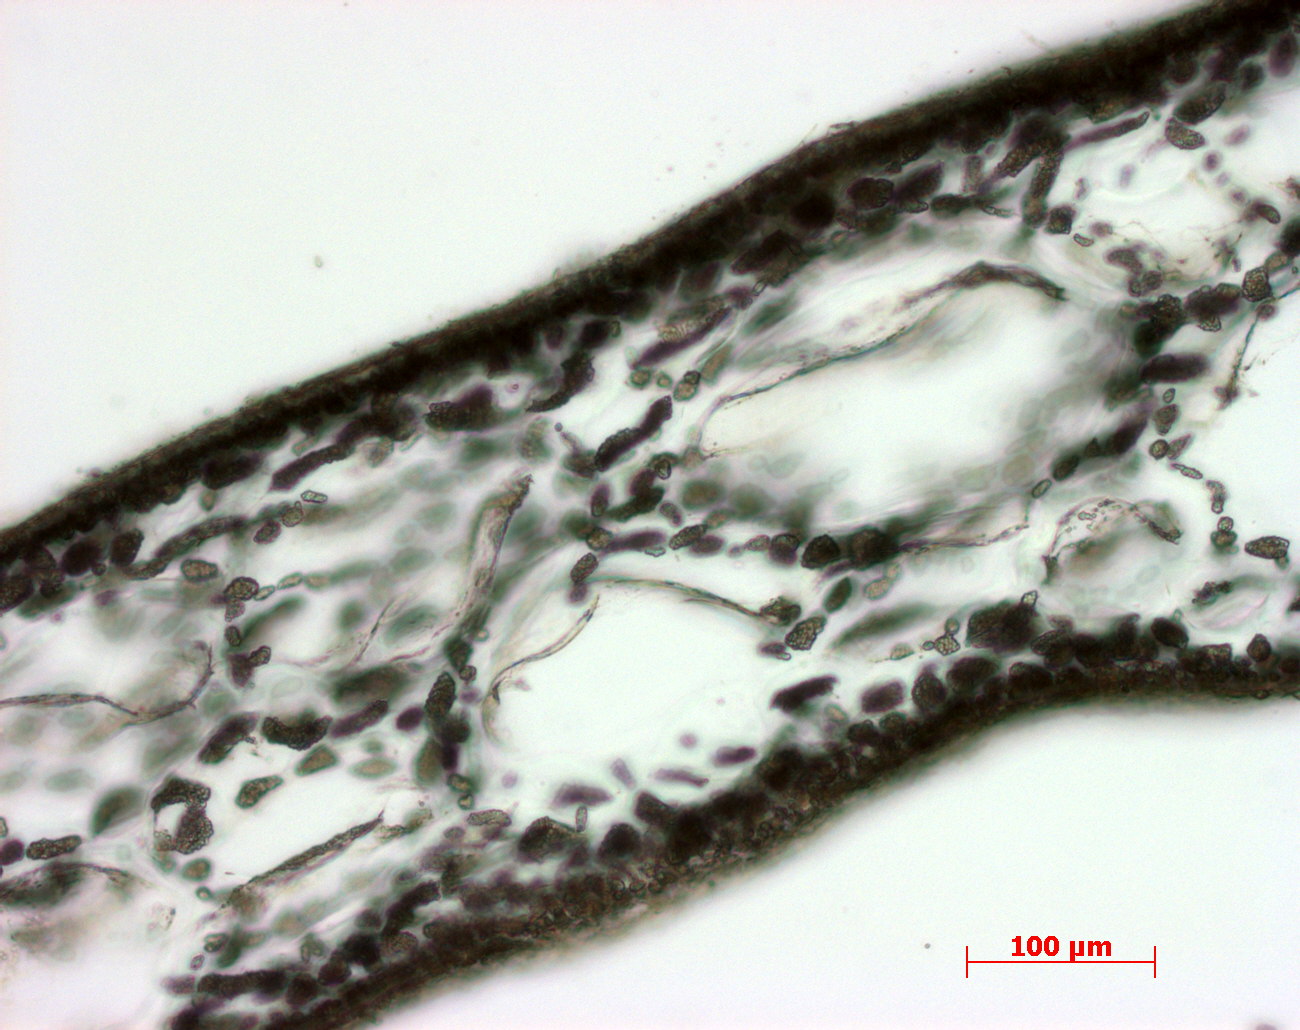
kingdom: Plantae
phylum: Rhodophyta
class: Florideophyceae
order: Gigartinales
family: Kallymeniaceae
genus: Callophyllis
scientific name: Callophyllis
